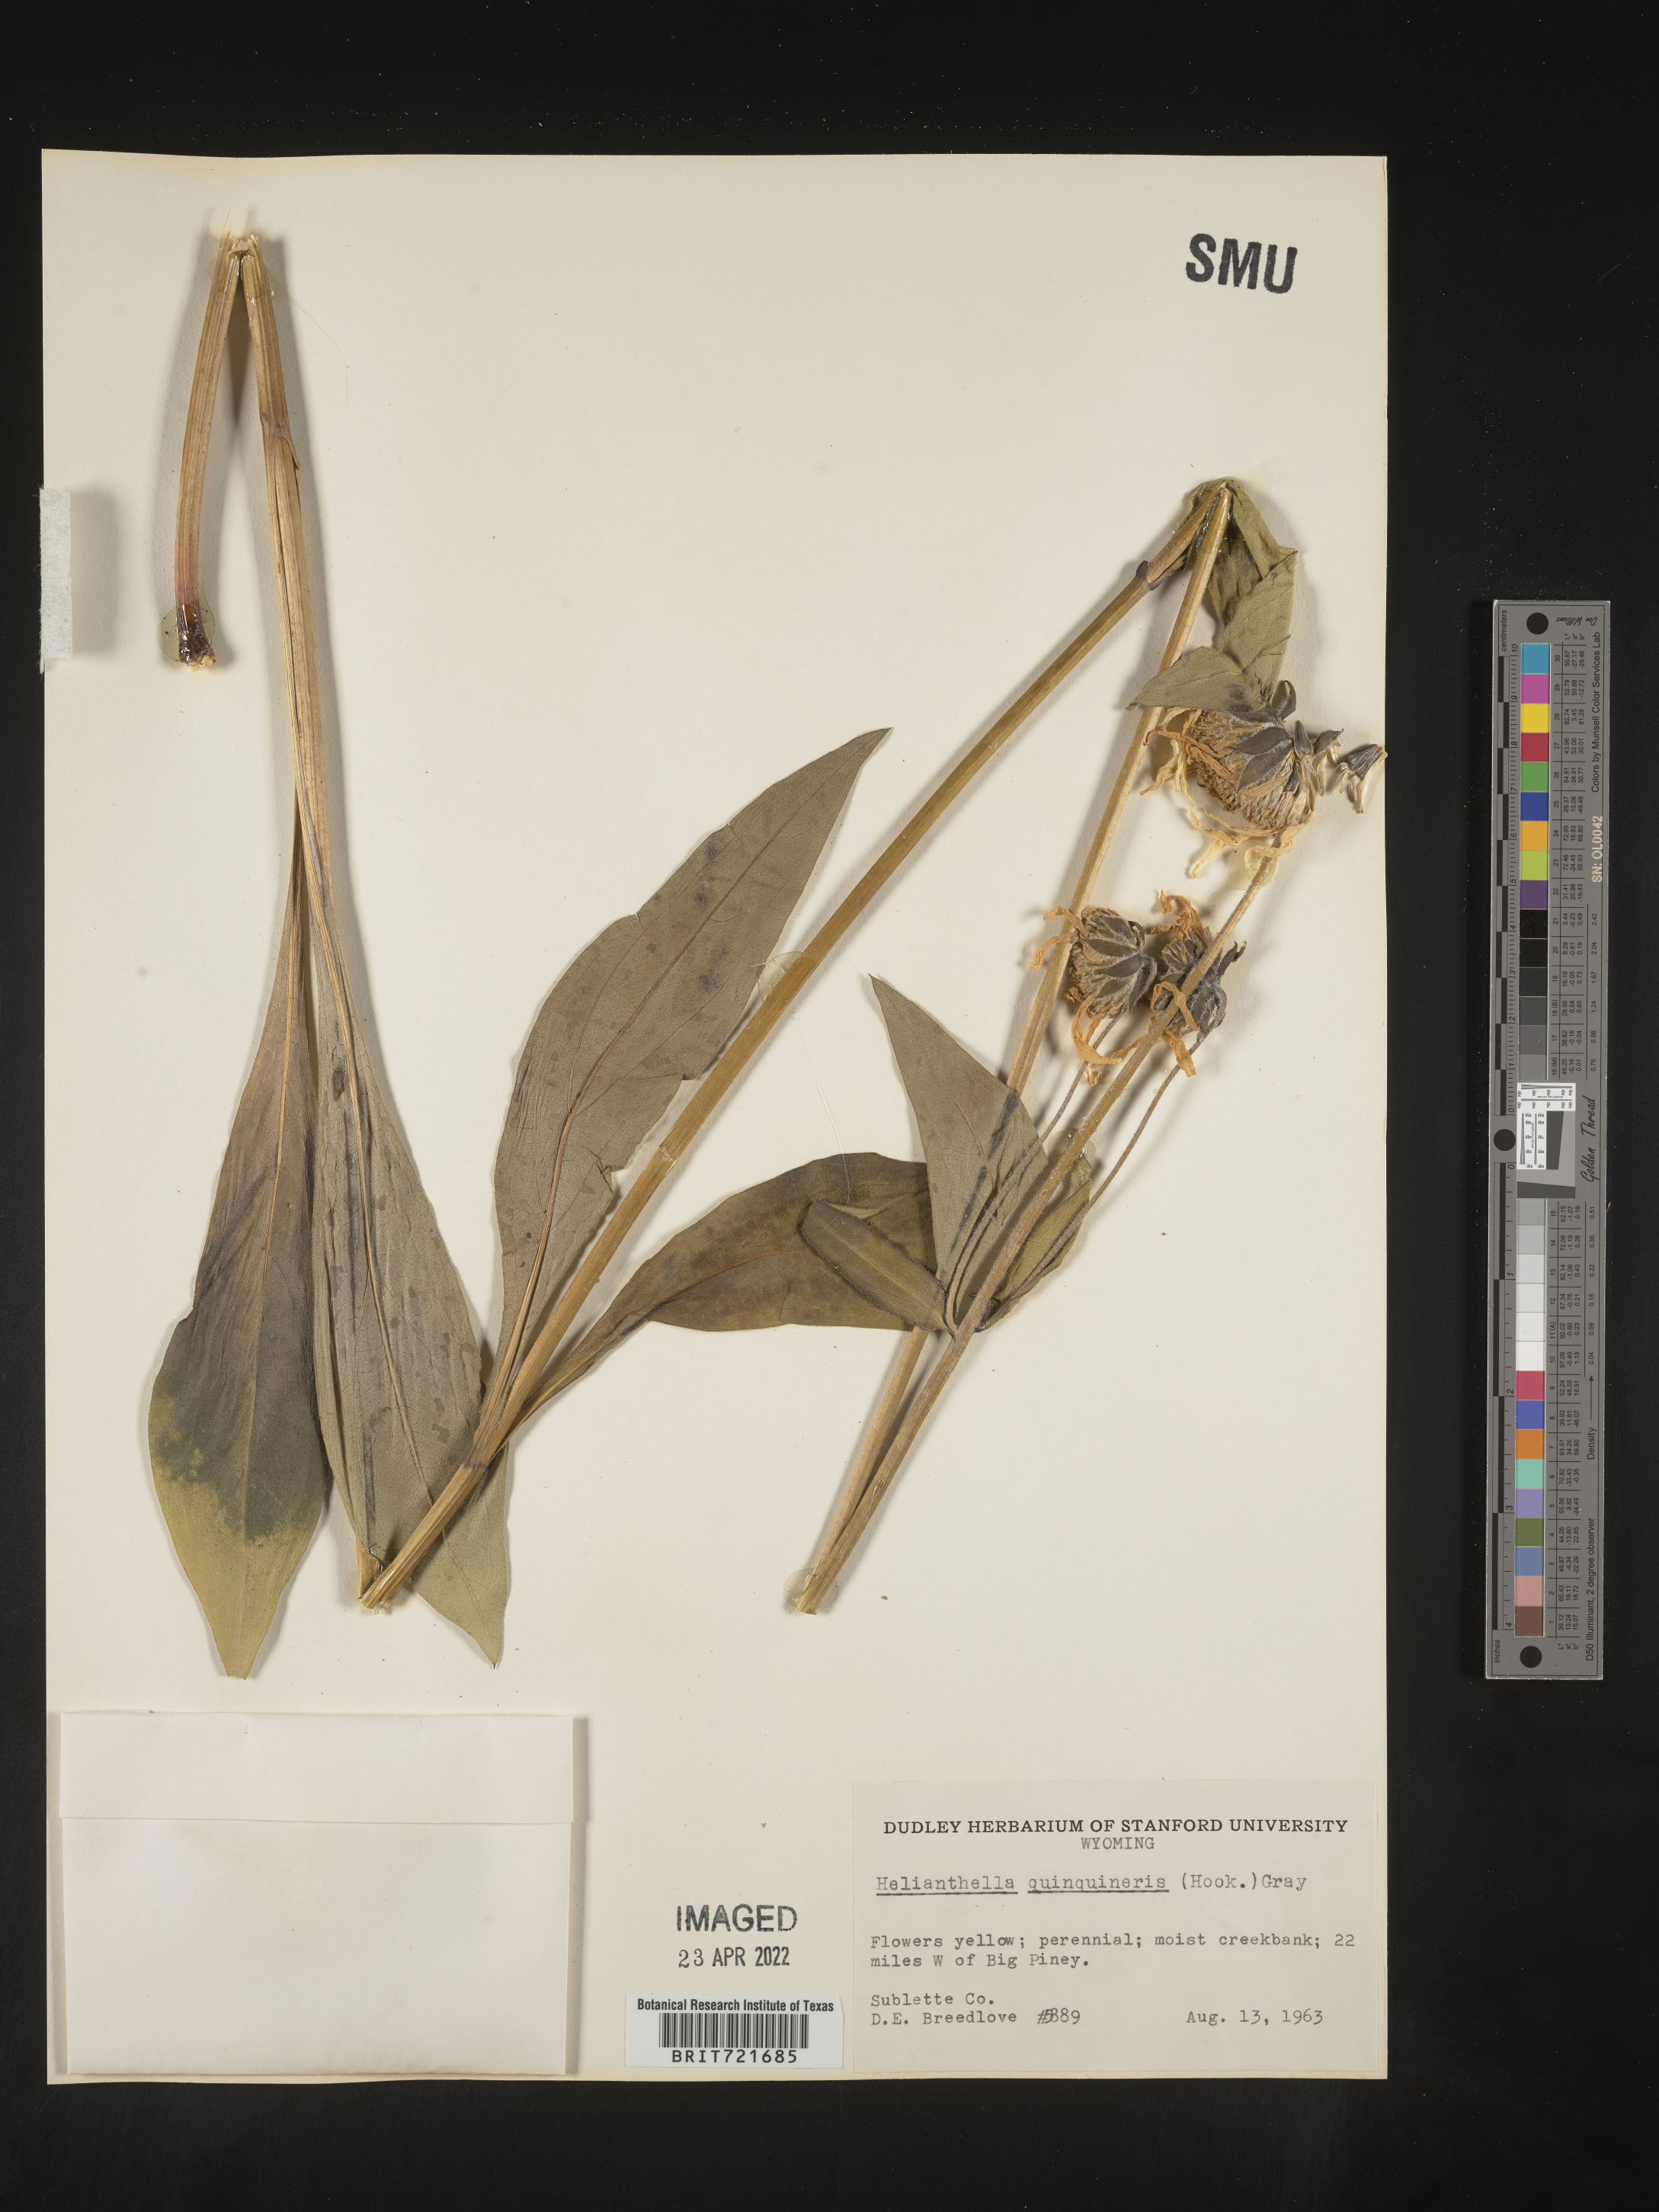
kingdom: Plantae
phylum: Tracheophyta
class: Magnoliopsida
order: Asterales
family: Asteraceae
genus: Helianthella
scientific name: Helianthella quinquenervis
